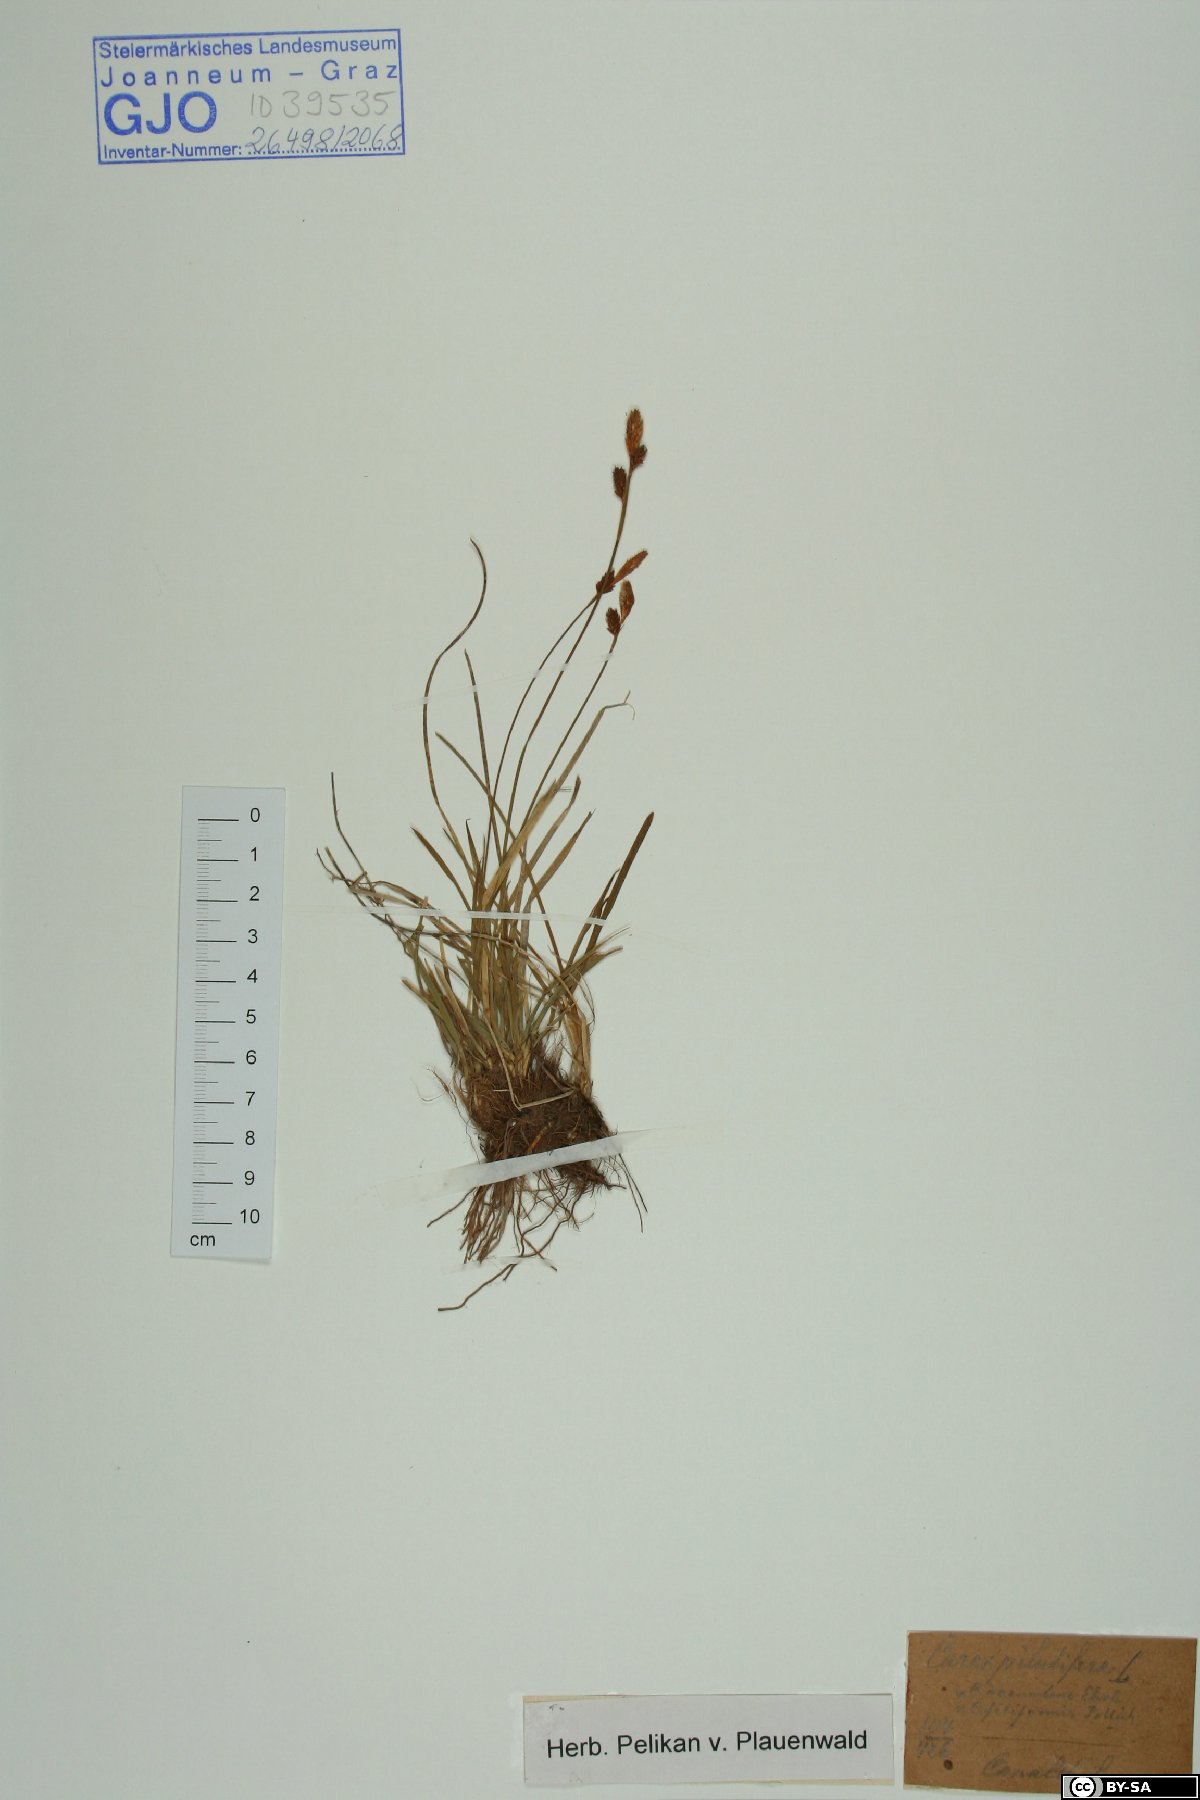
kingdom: Plantae
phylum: Tracheophyta
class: Liliopsida
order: Poales
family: Cyperaceae
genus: Carex
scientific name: Carex pilulifera
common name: Pill sedge
